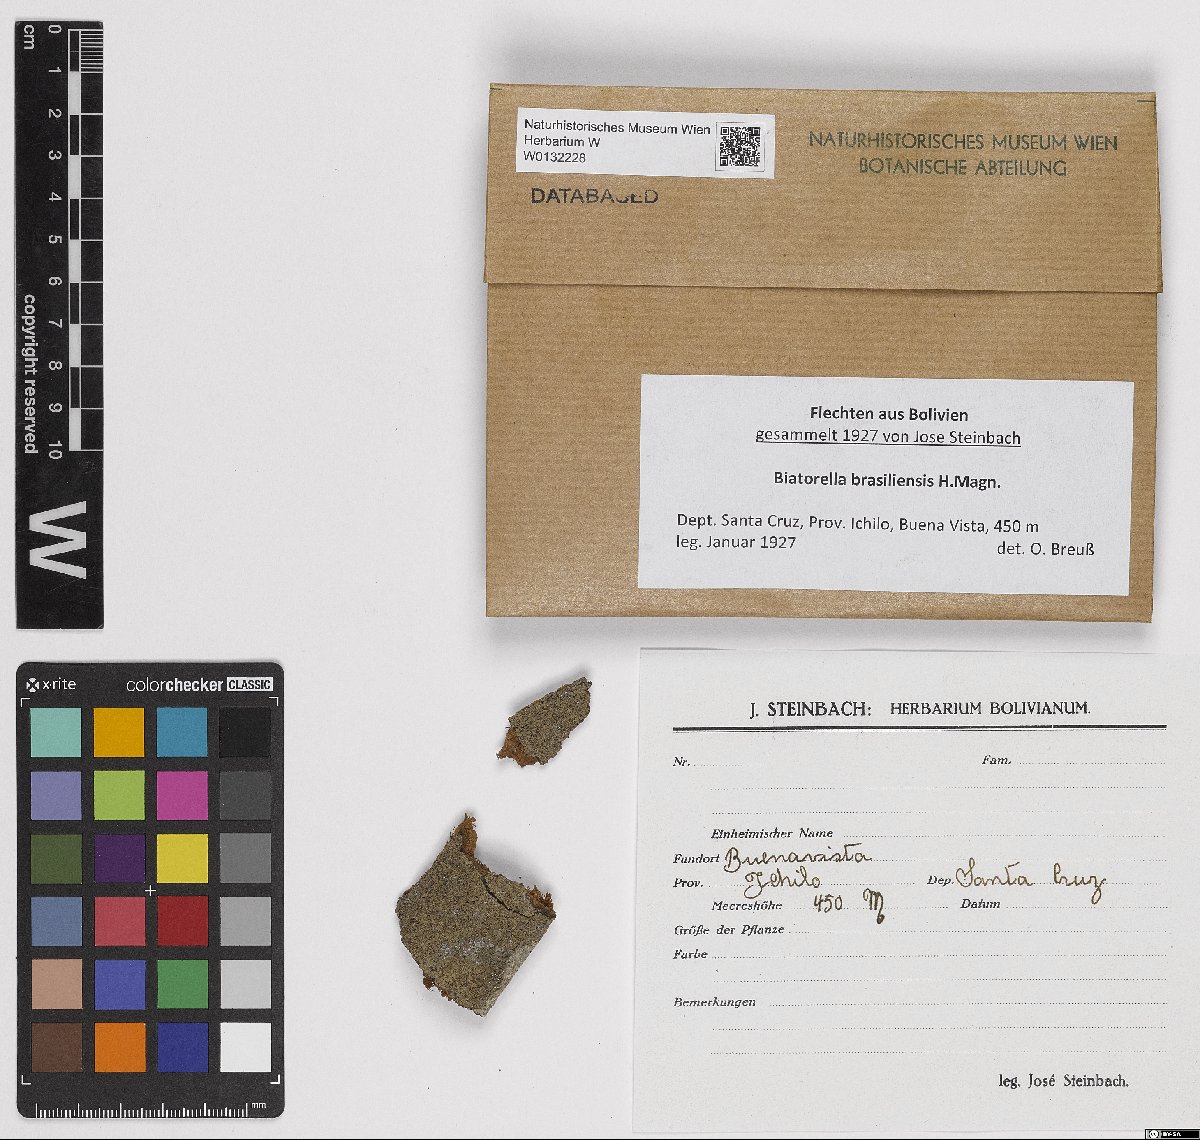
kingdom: Fungi
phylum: Ascomycota
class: Lecanoromycetes
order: Lecanorales
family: Biatorellaceae
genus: Biatorella
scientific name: Biatorella
